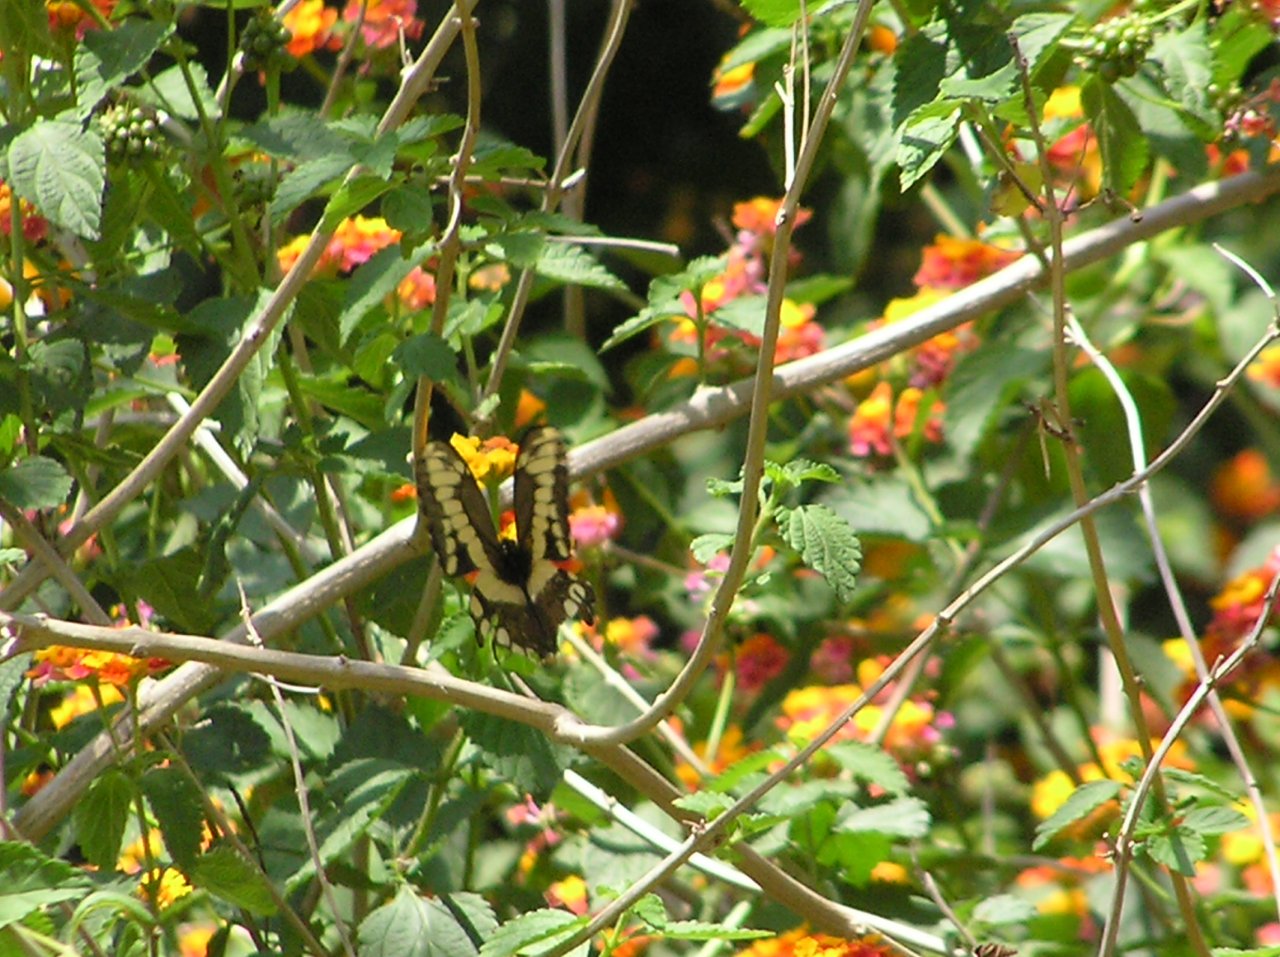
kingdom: Animalia
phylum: Arthropoda
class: Insecta
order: Lepidoptera
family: Papilionidae
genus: Papilio
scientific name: Papilio cresphontes
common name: Eastern Giant Swallowtail
